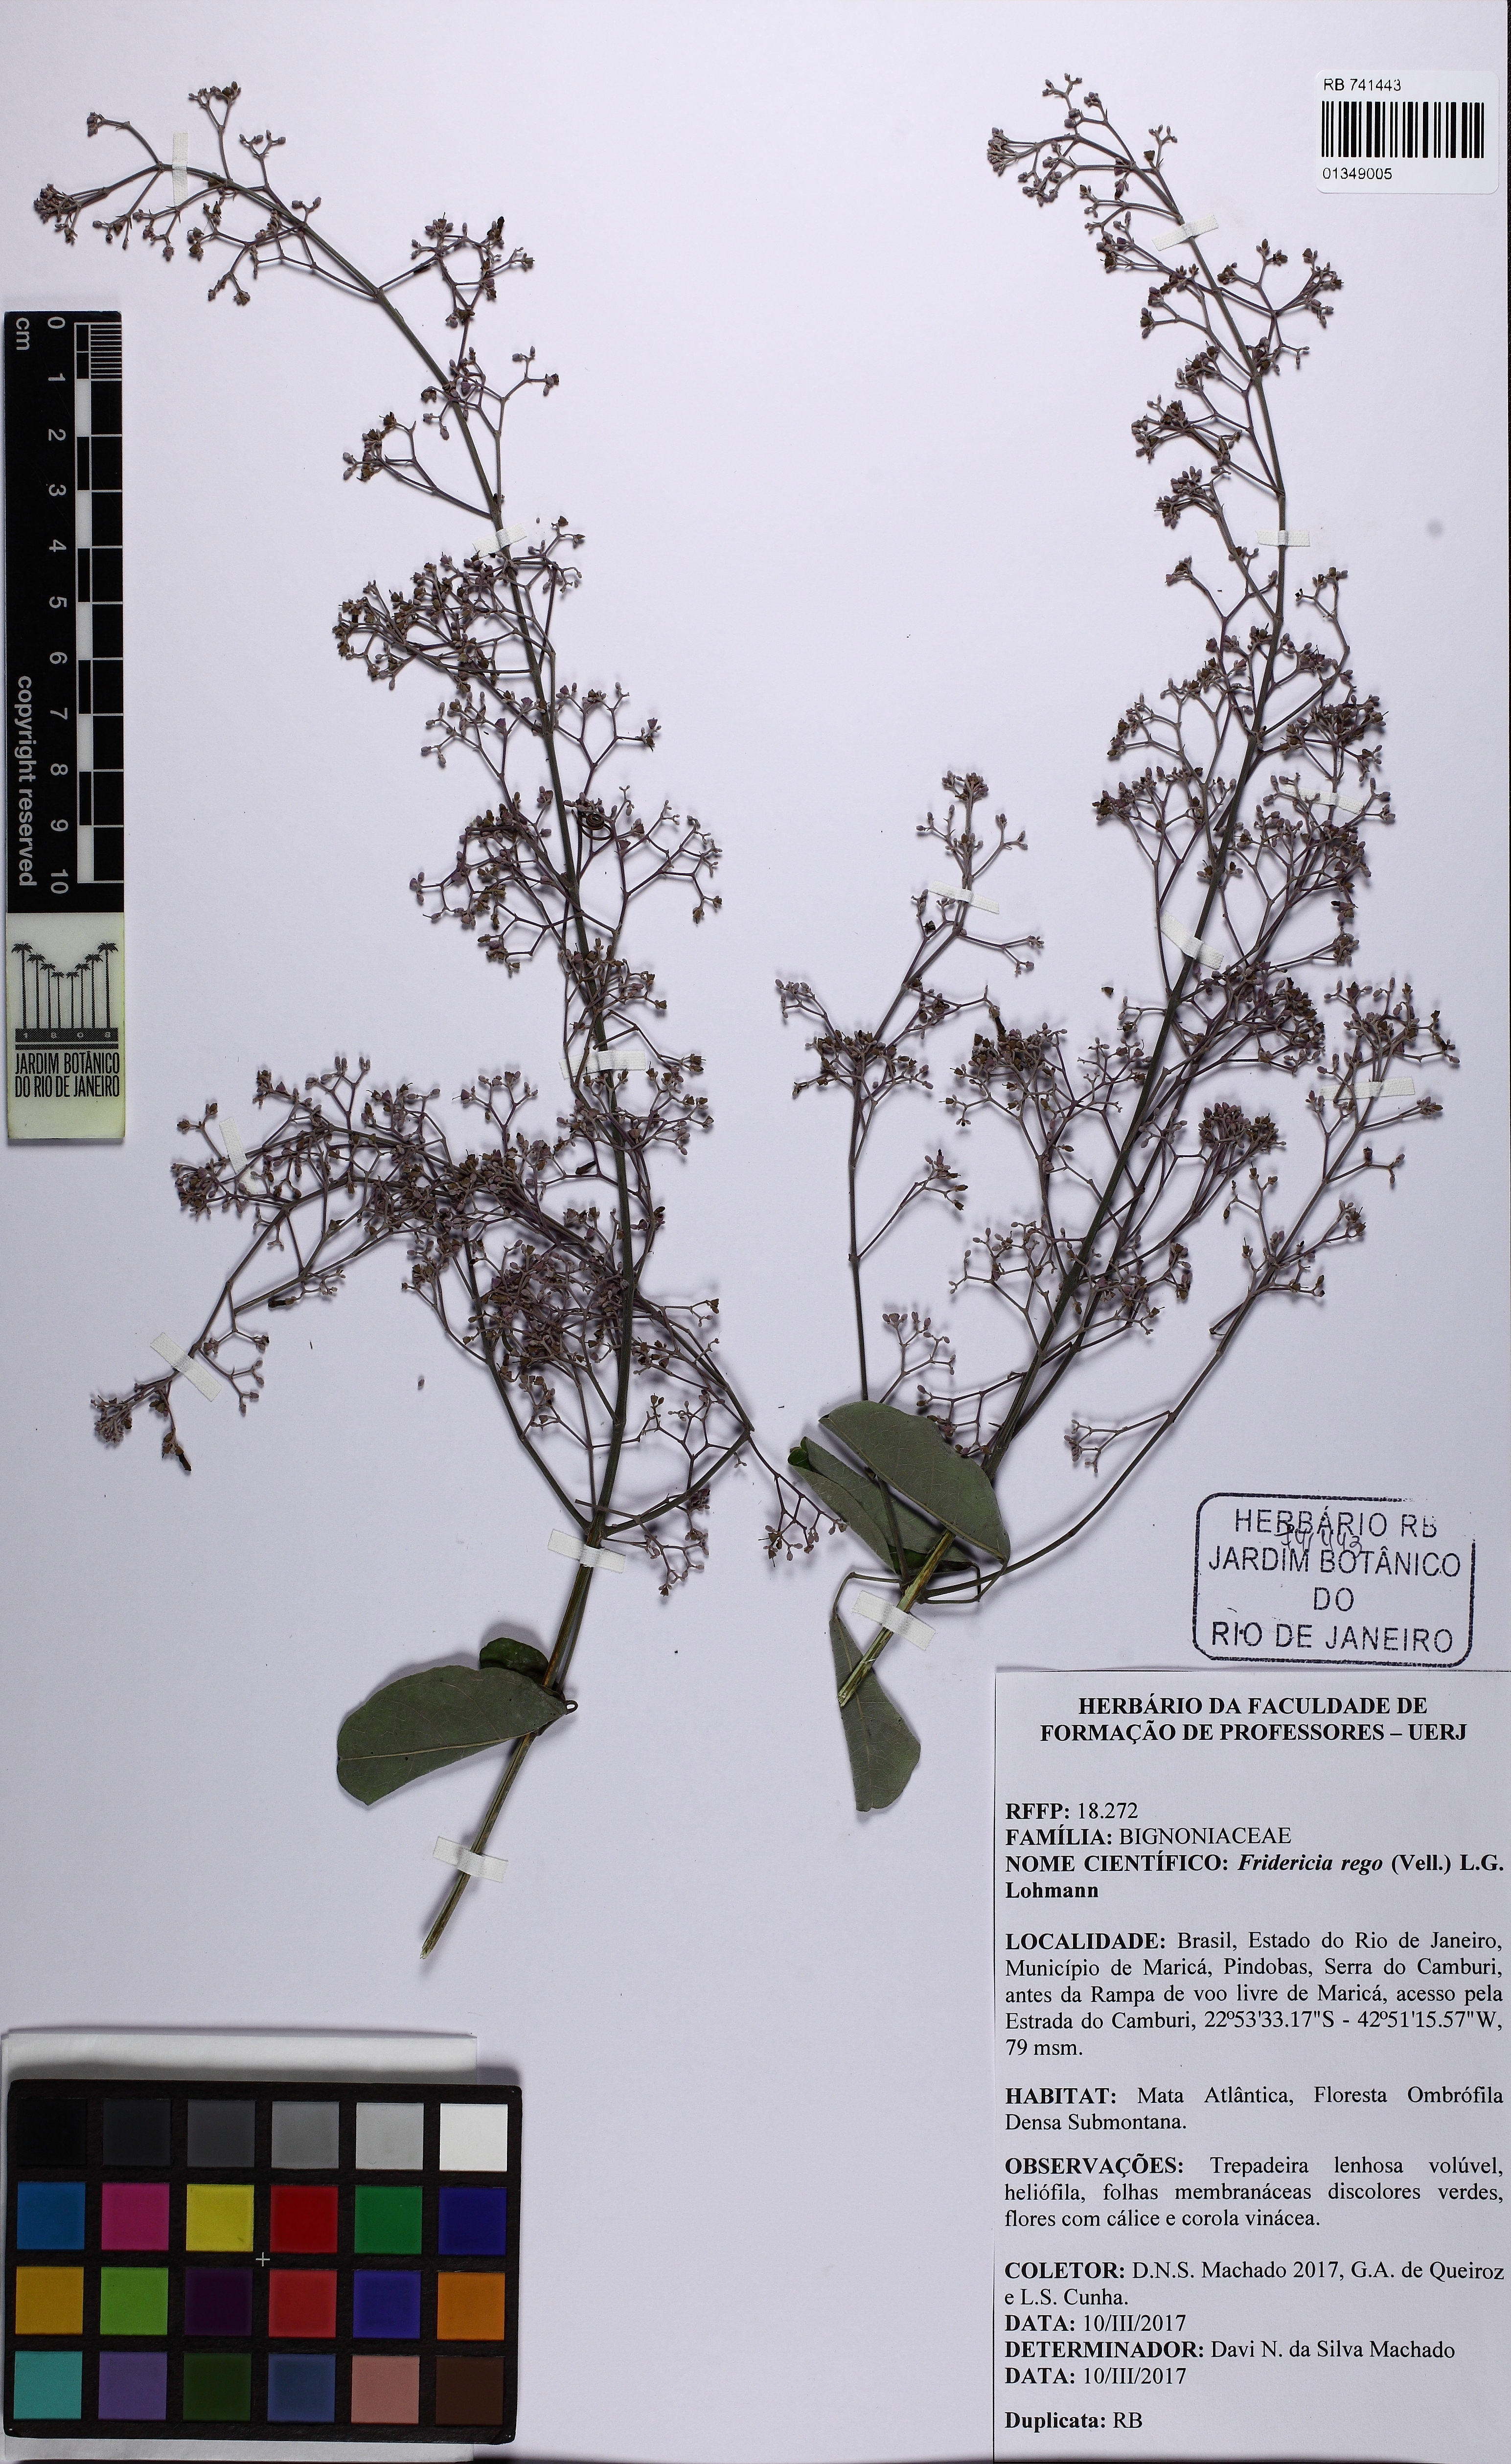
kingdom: Plantae
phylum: Tracheophyta
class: Magnoliopsida
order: Lamiales
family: Bignoniaceae
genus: Fridericia
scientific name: Fridericia rego
